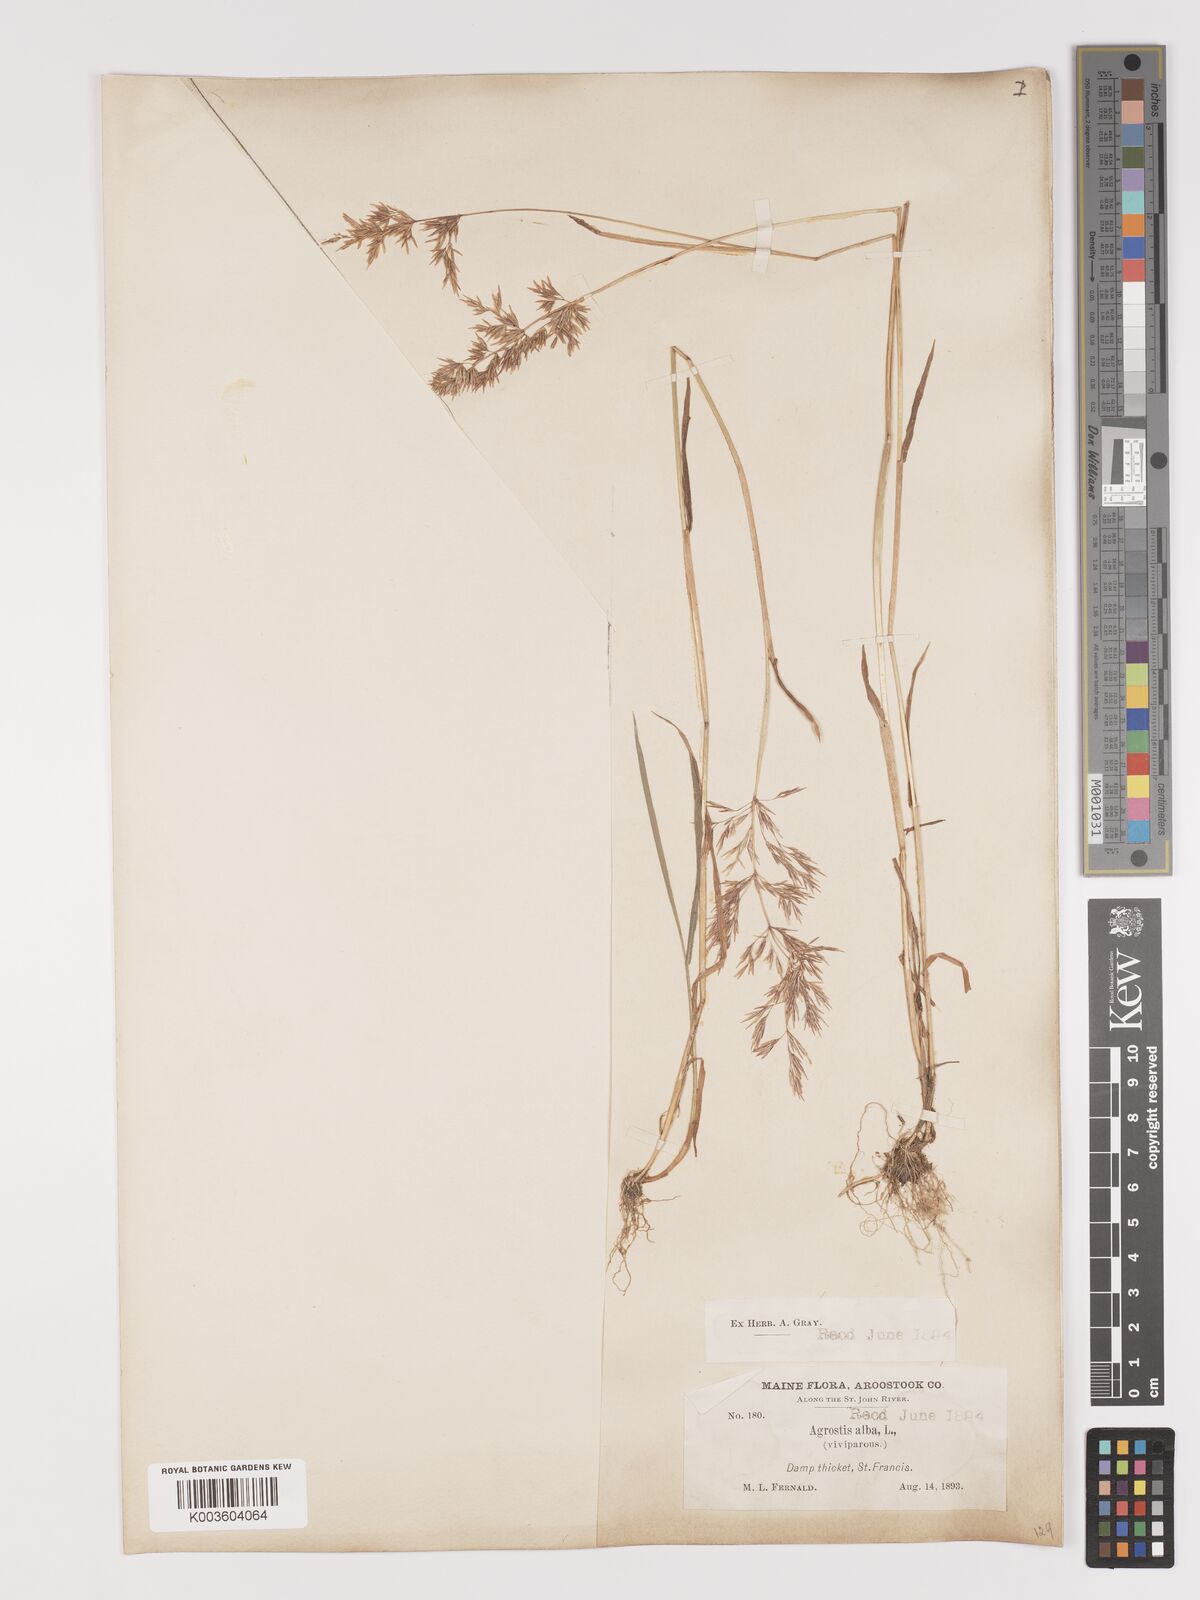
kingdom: Plantae
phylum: Tracheophyta
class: Liliopsida
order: Poales
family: Poaceae
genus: Agrostis
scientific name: Agrostis gigantea
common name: Black bent
